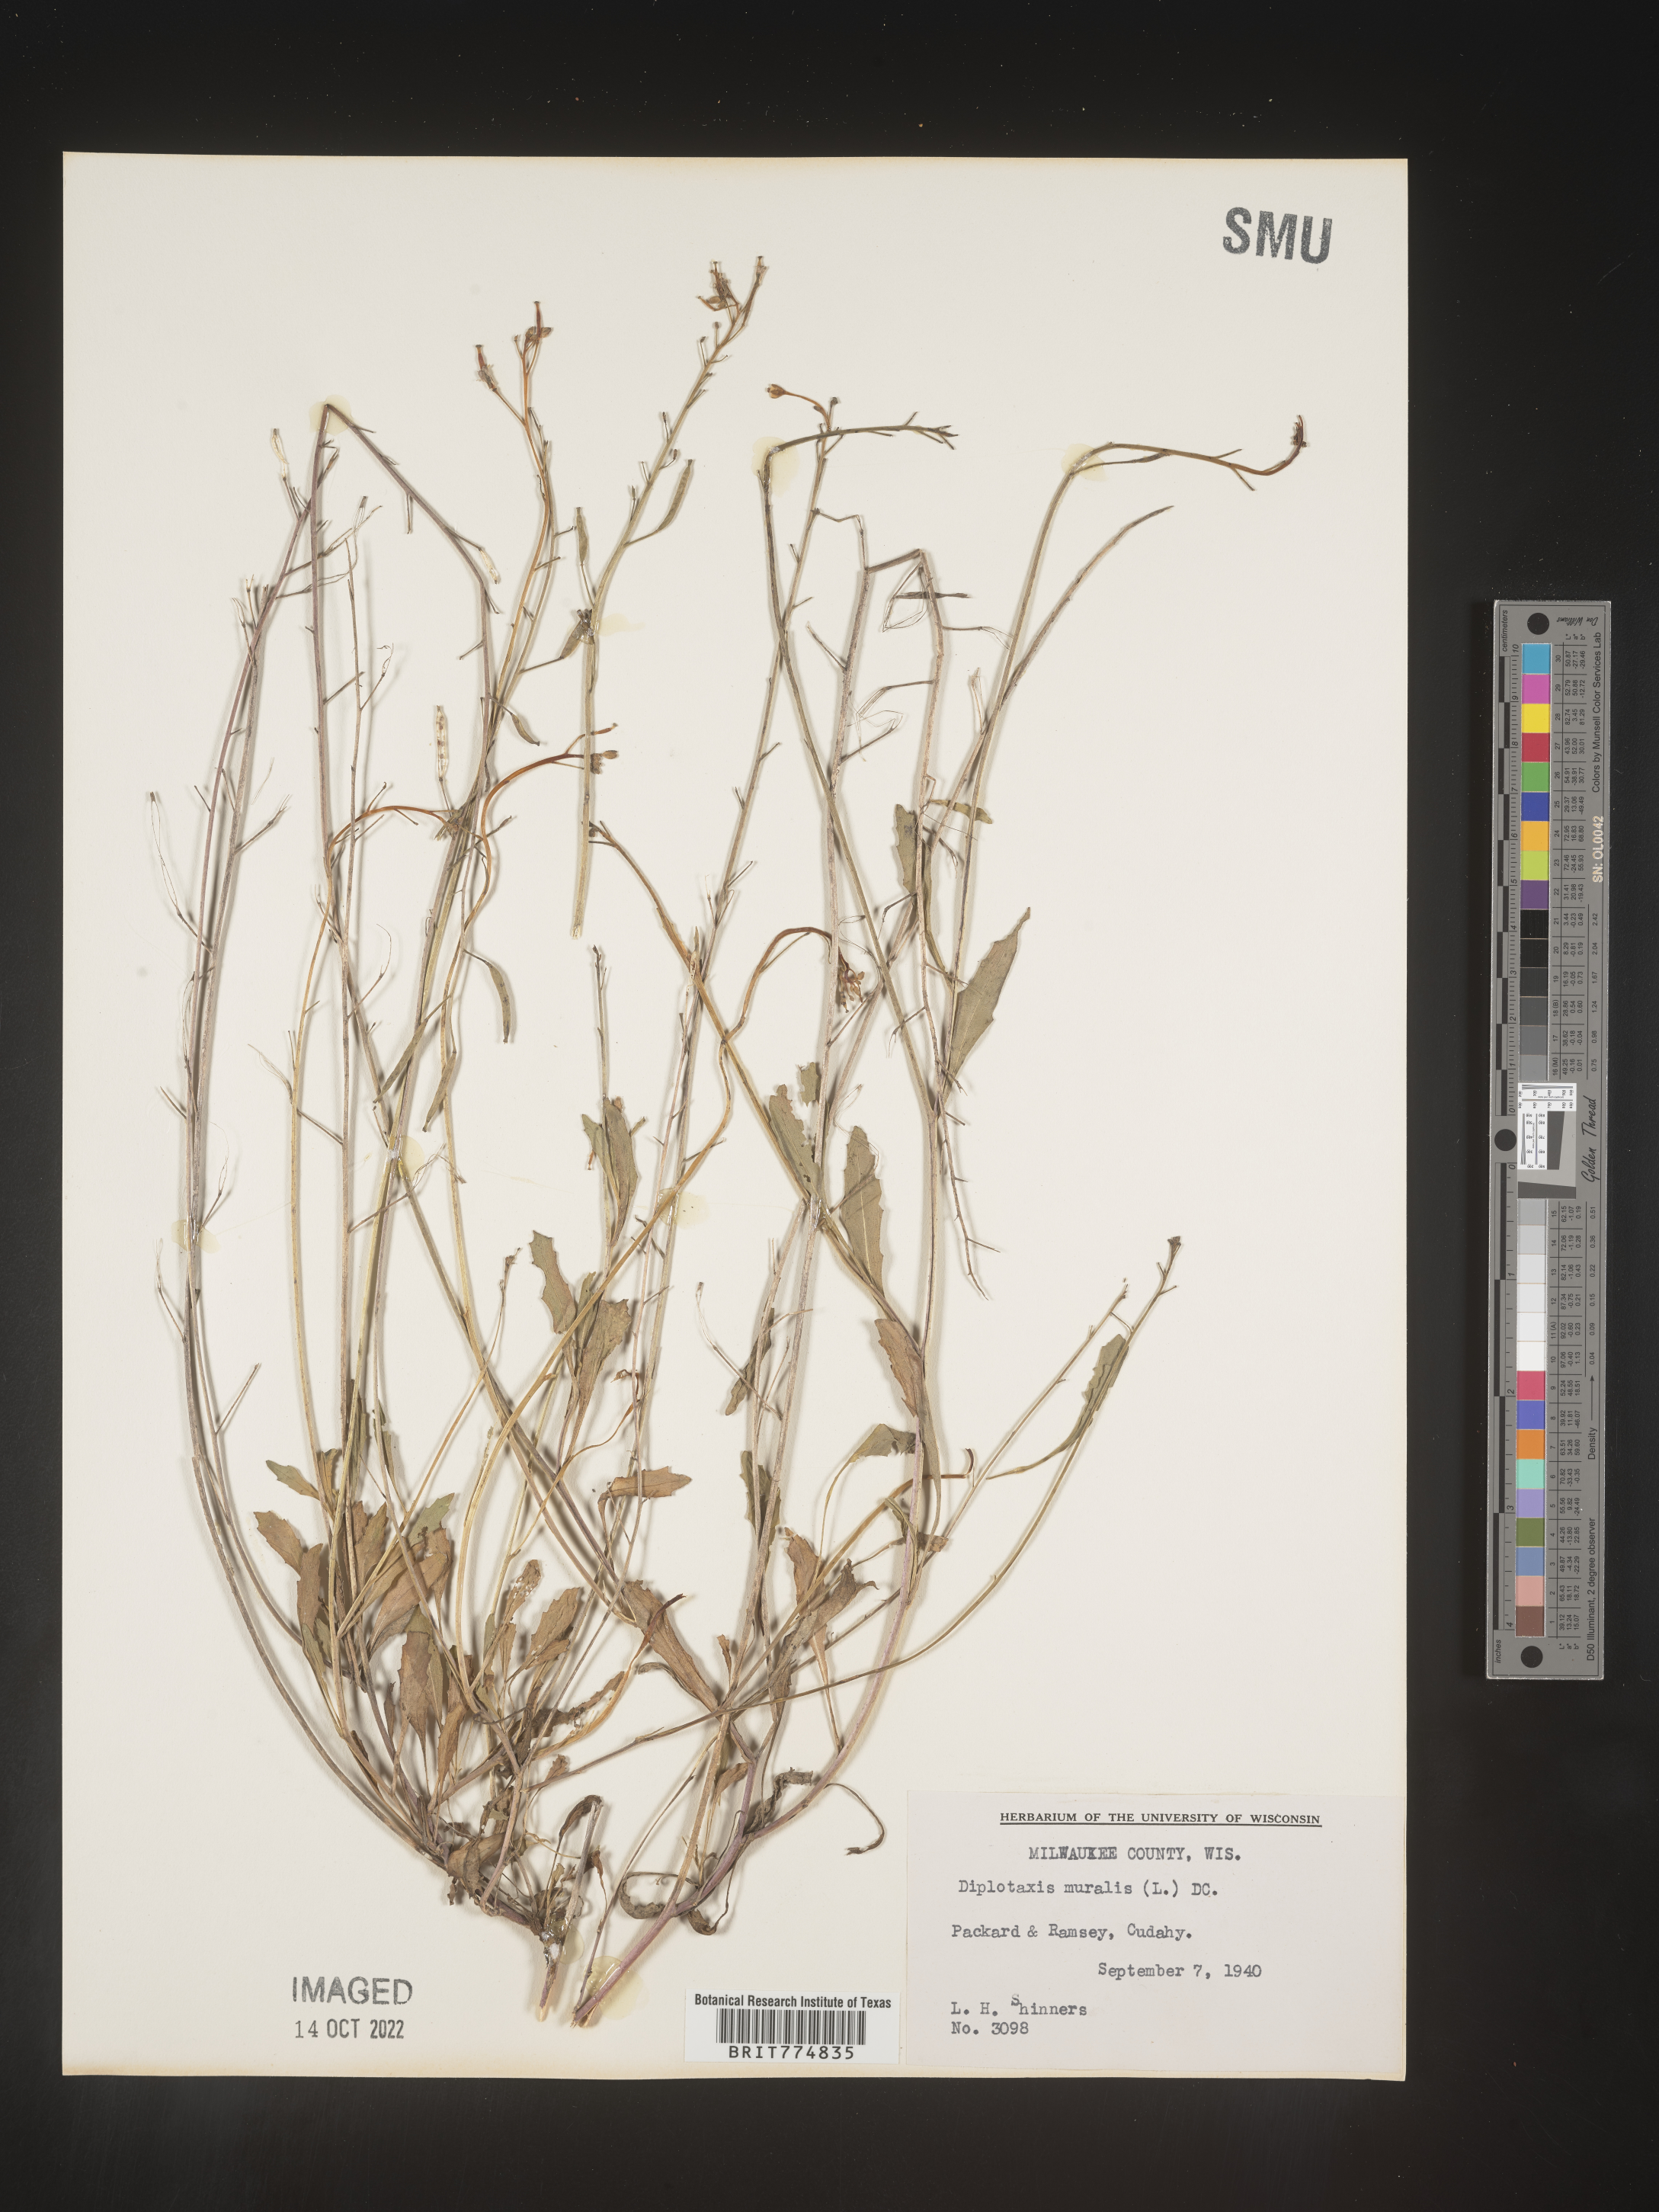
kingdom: Plantae
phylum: Tracheophyta
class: Magnoliopsida
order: Brassicales
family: Brassicaceae
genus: Diplotaxis
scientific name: Diplotaxis
